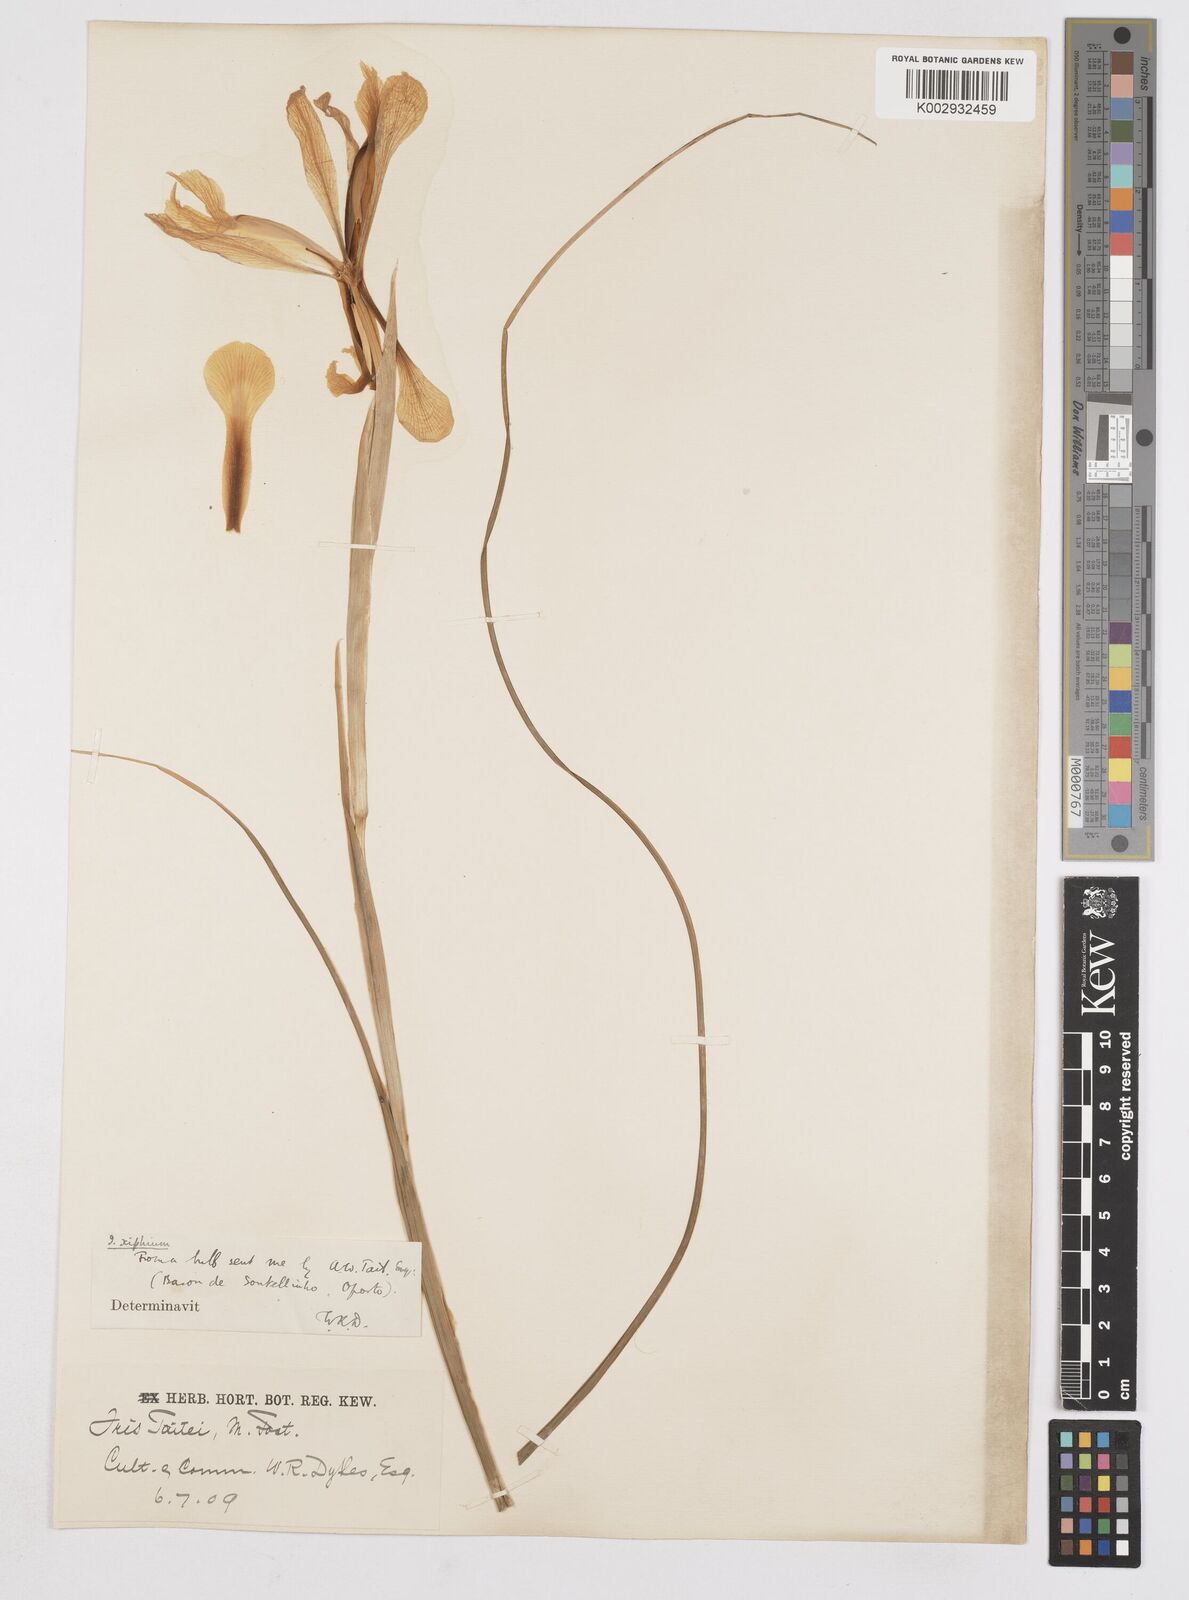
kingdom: Plantae
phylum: Tracheophyta
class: Liliopsida
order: Asparagales
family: Iridaceae
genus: Iris
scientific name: Iris xiphium
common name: Spanish iris
